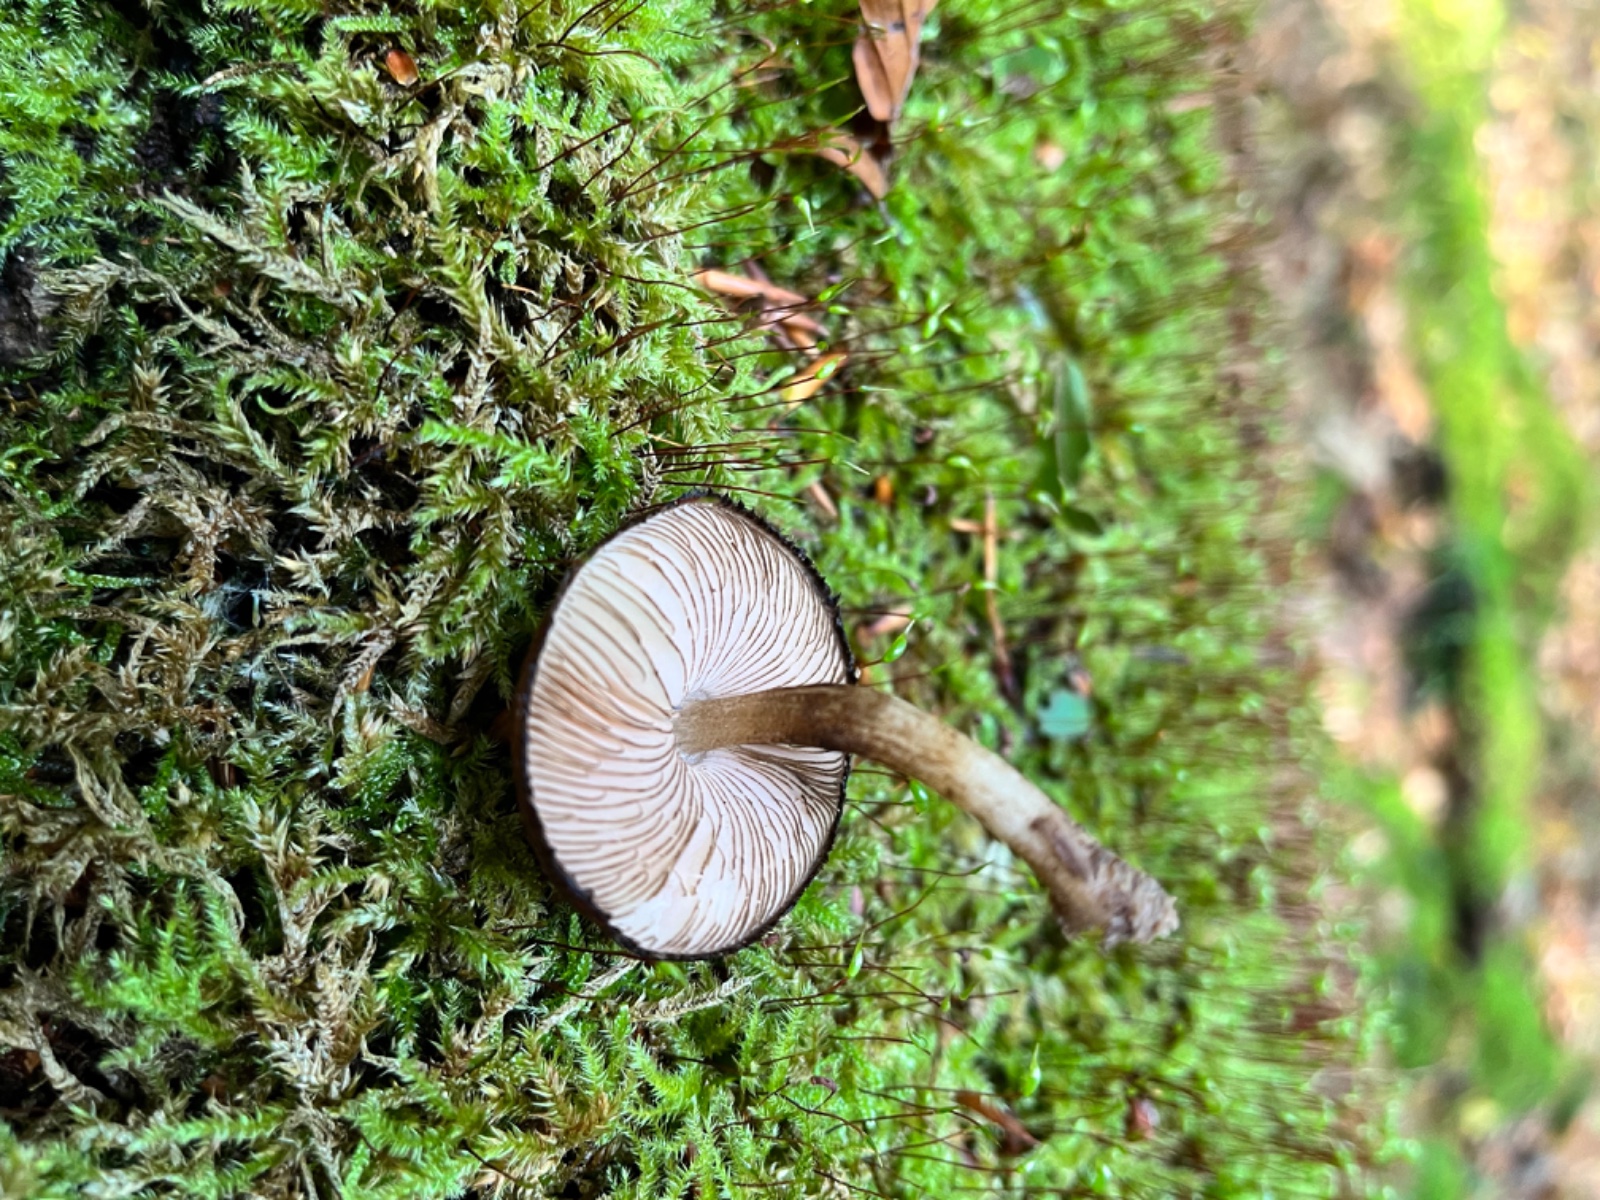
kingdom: Fungi
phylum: Basidiomycota
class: Agaricomycetes
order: Agaricales
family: Pluteaceae
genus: Pluteus
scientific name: Pluteus umbrosus
